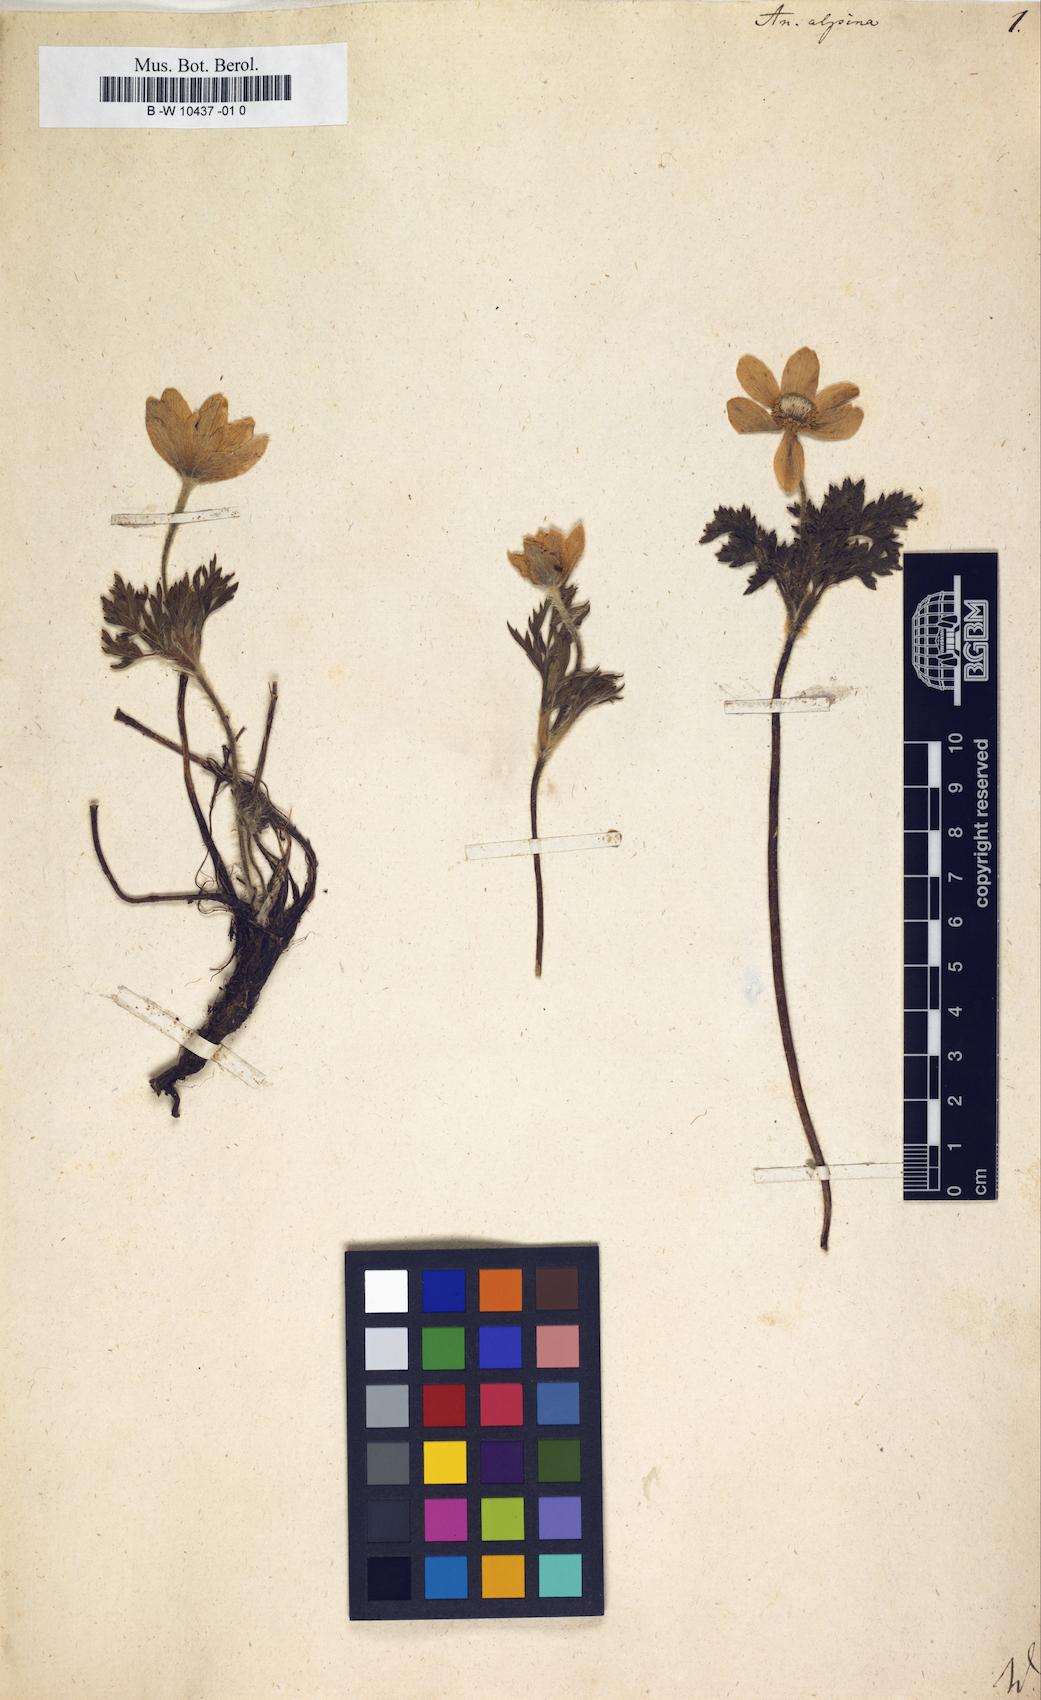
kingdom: Plantae
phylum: Tracheophyta
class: Magnoliopsida
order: Ranunculales
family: Ranunculaceae
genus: Pulsatilla
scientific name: Pulsatilla alpina
